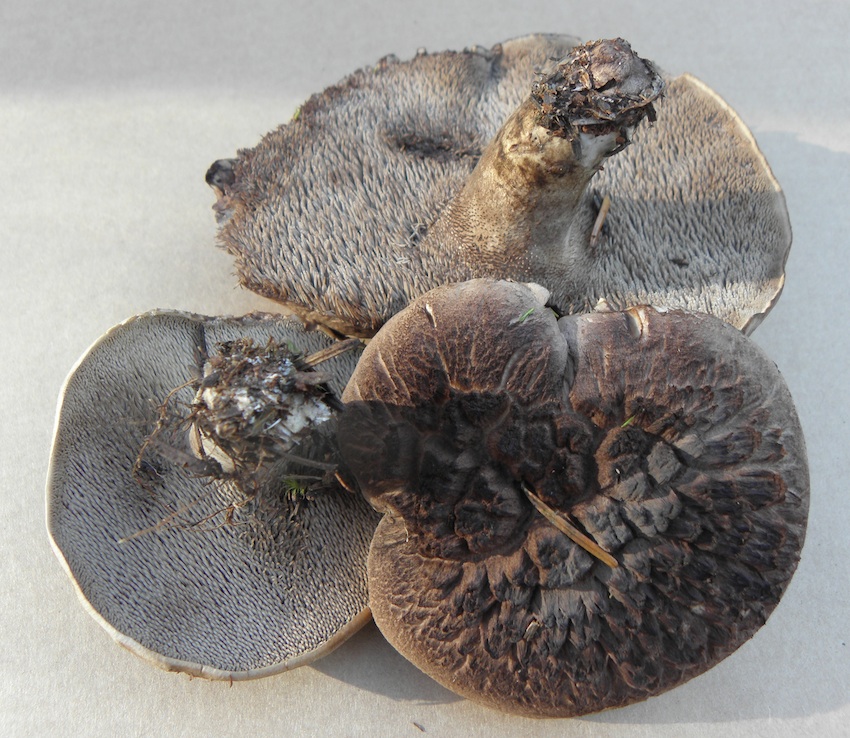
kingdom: Fungi
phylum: Basidiomycota
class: Agaricomycetes
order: Thelephorales
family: Bankeraceae
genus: Sarcodon
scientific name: Sarcodon imbricatus
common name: skællet kødpigsvamp
